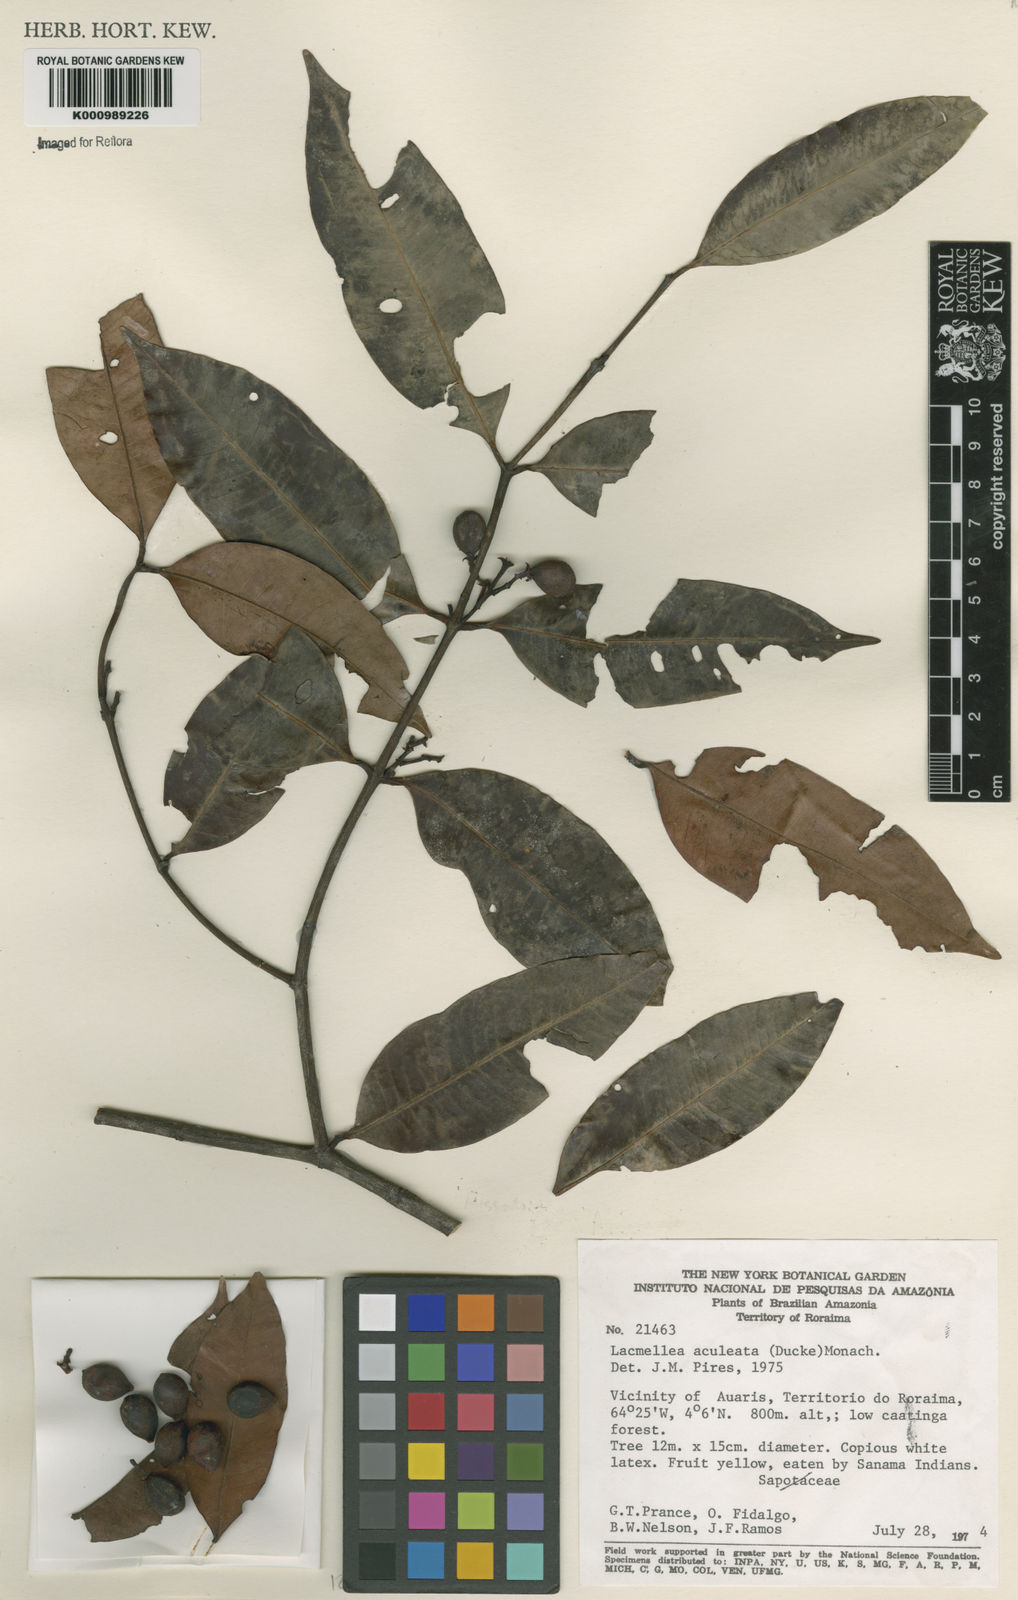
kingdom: Plantae
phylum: Tracheophyta
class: Magnoliopsida
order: Gentianales
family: Apocynaceae
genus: Lacmellea
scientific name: Lacmellea aculeata
